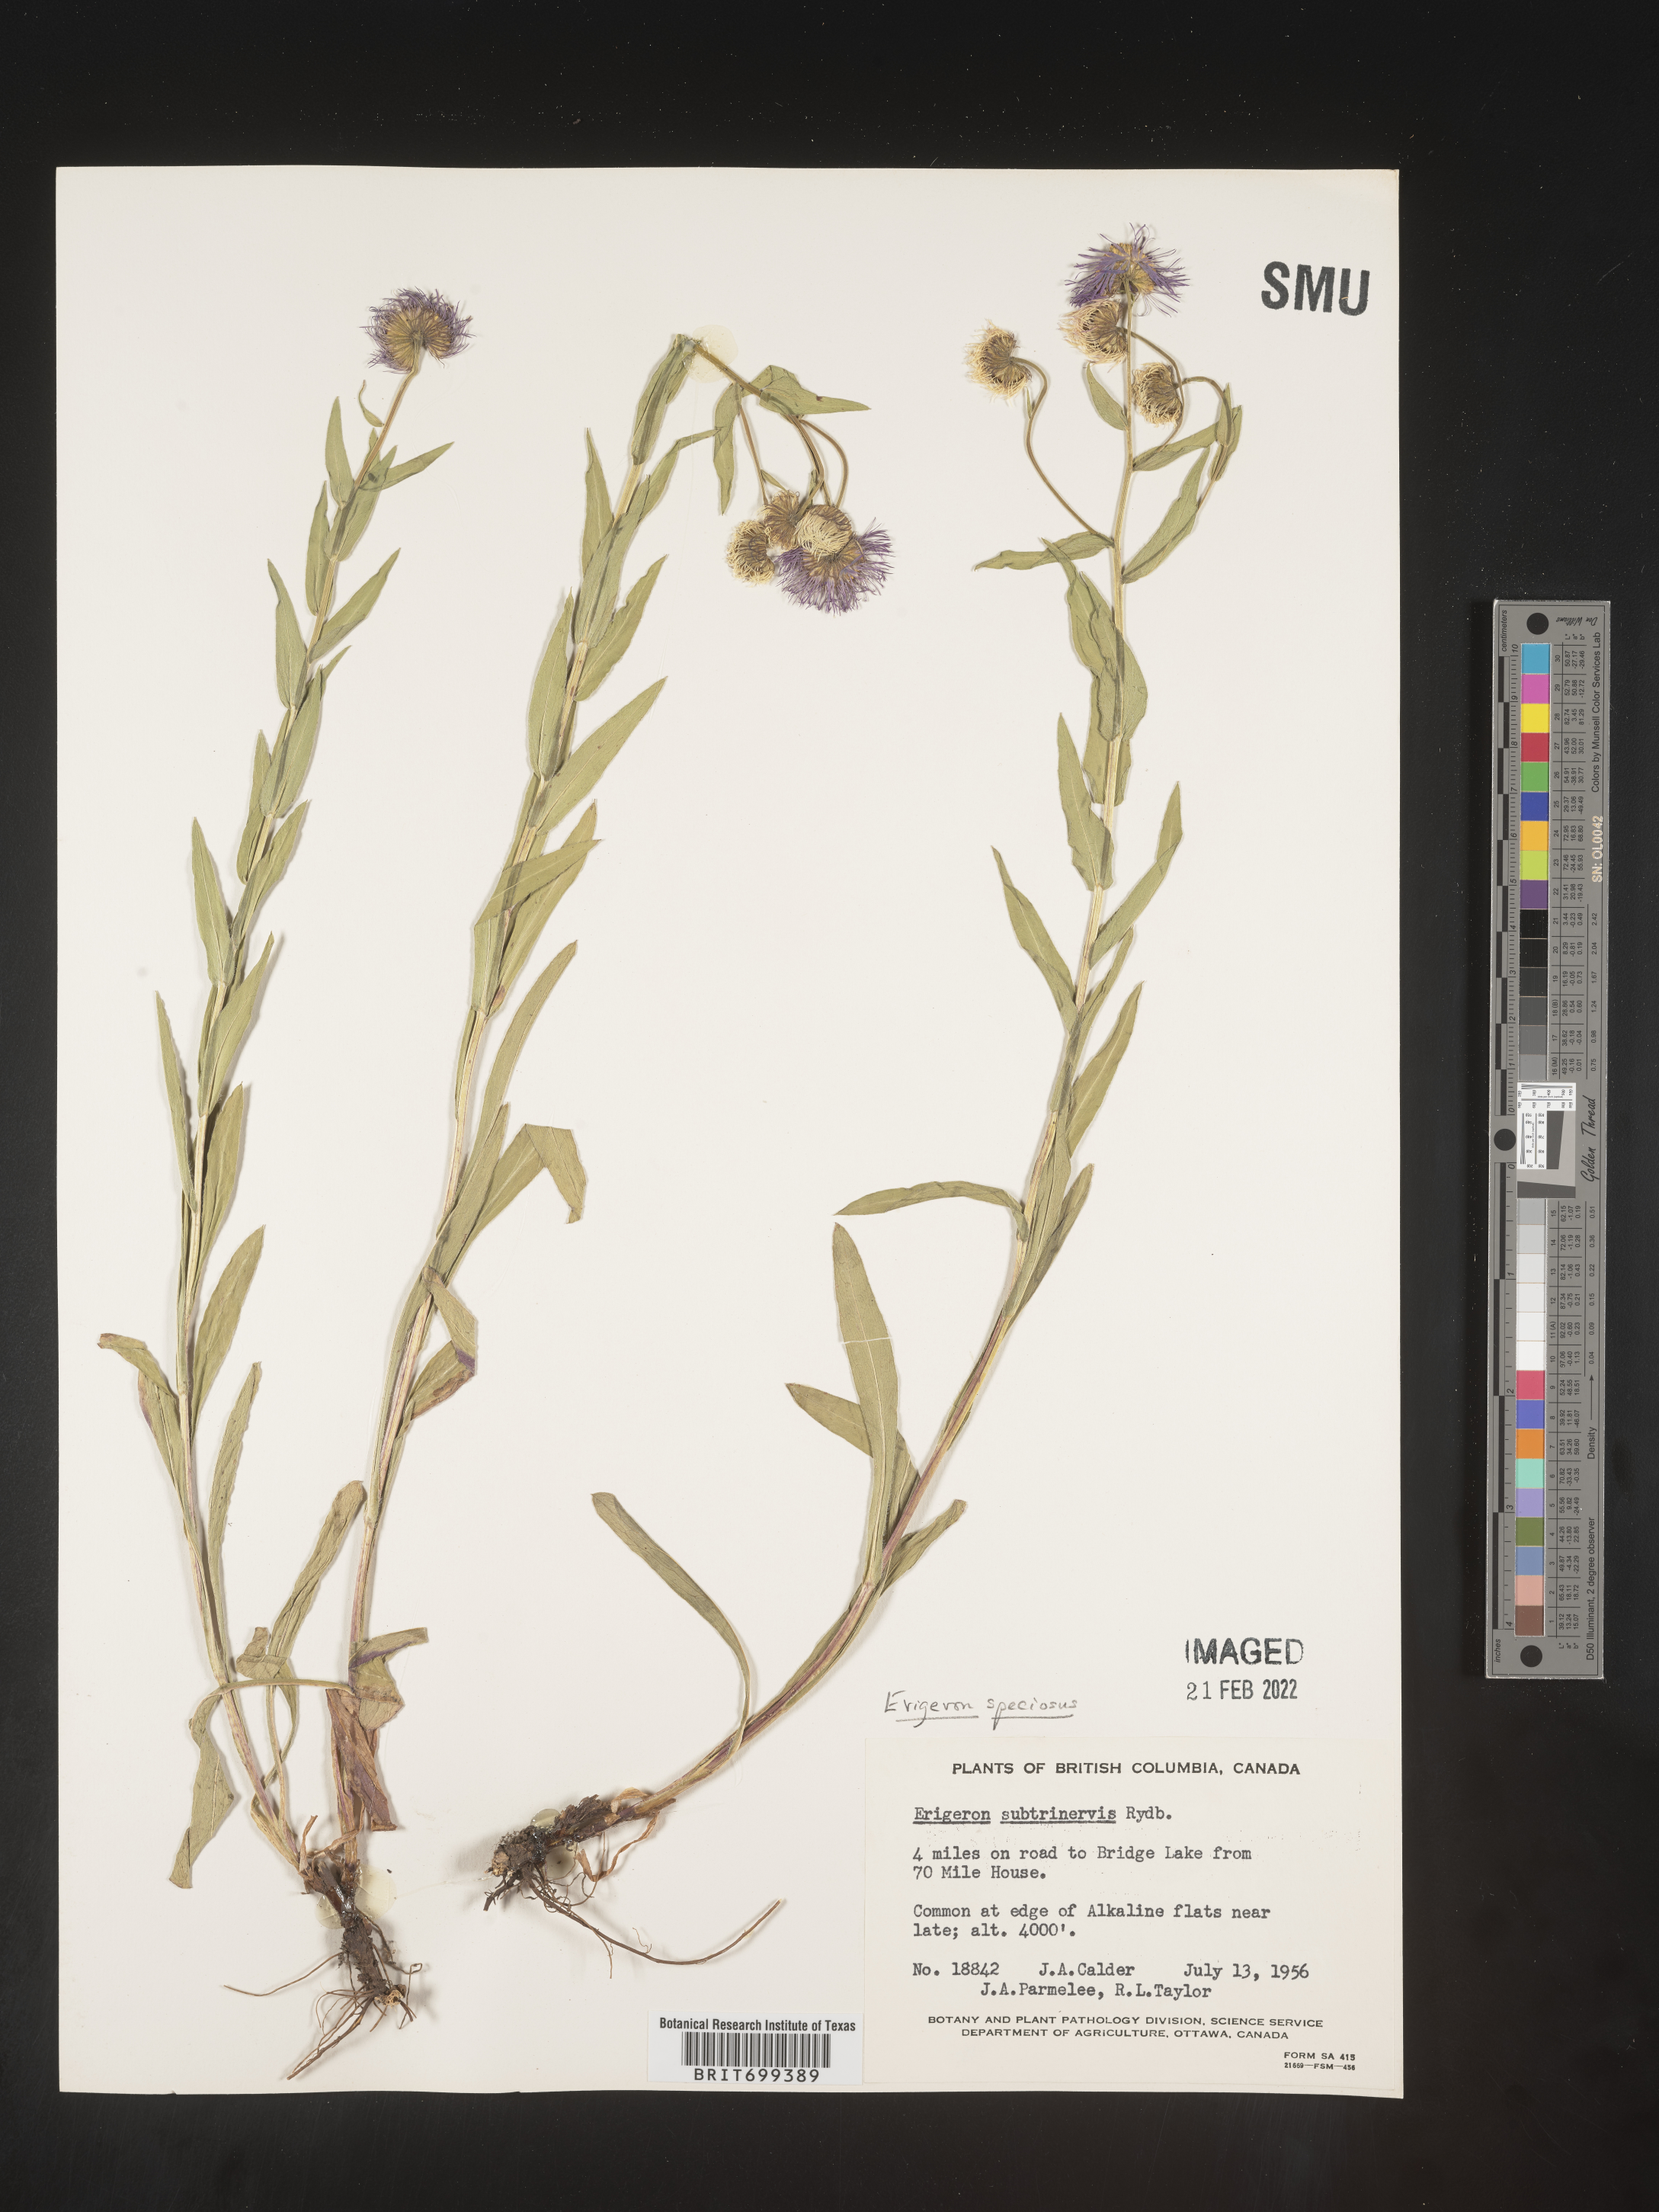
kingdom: Plantae
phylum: Tracheophyta
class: Magnoliopsida
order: Asterales
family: Asteraceae
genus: Erigeron
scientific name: Erigeron speciosus
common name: Aspen fleabane
